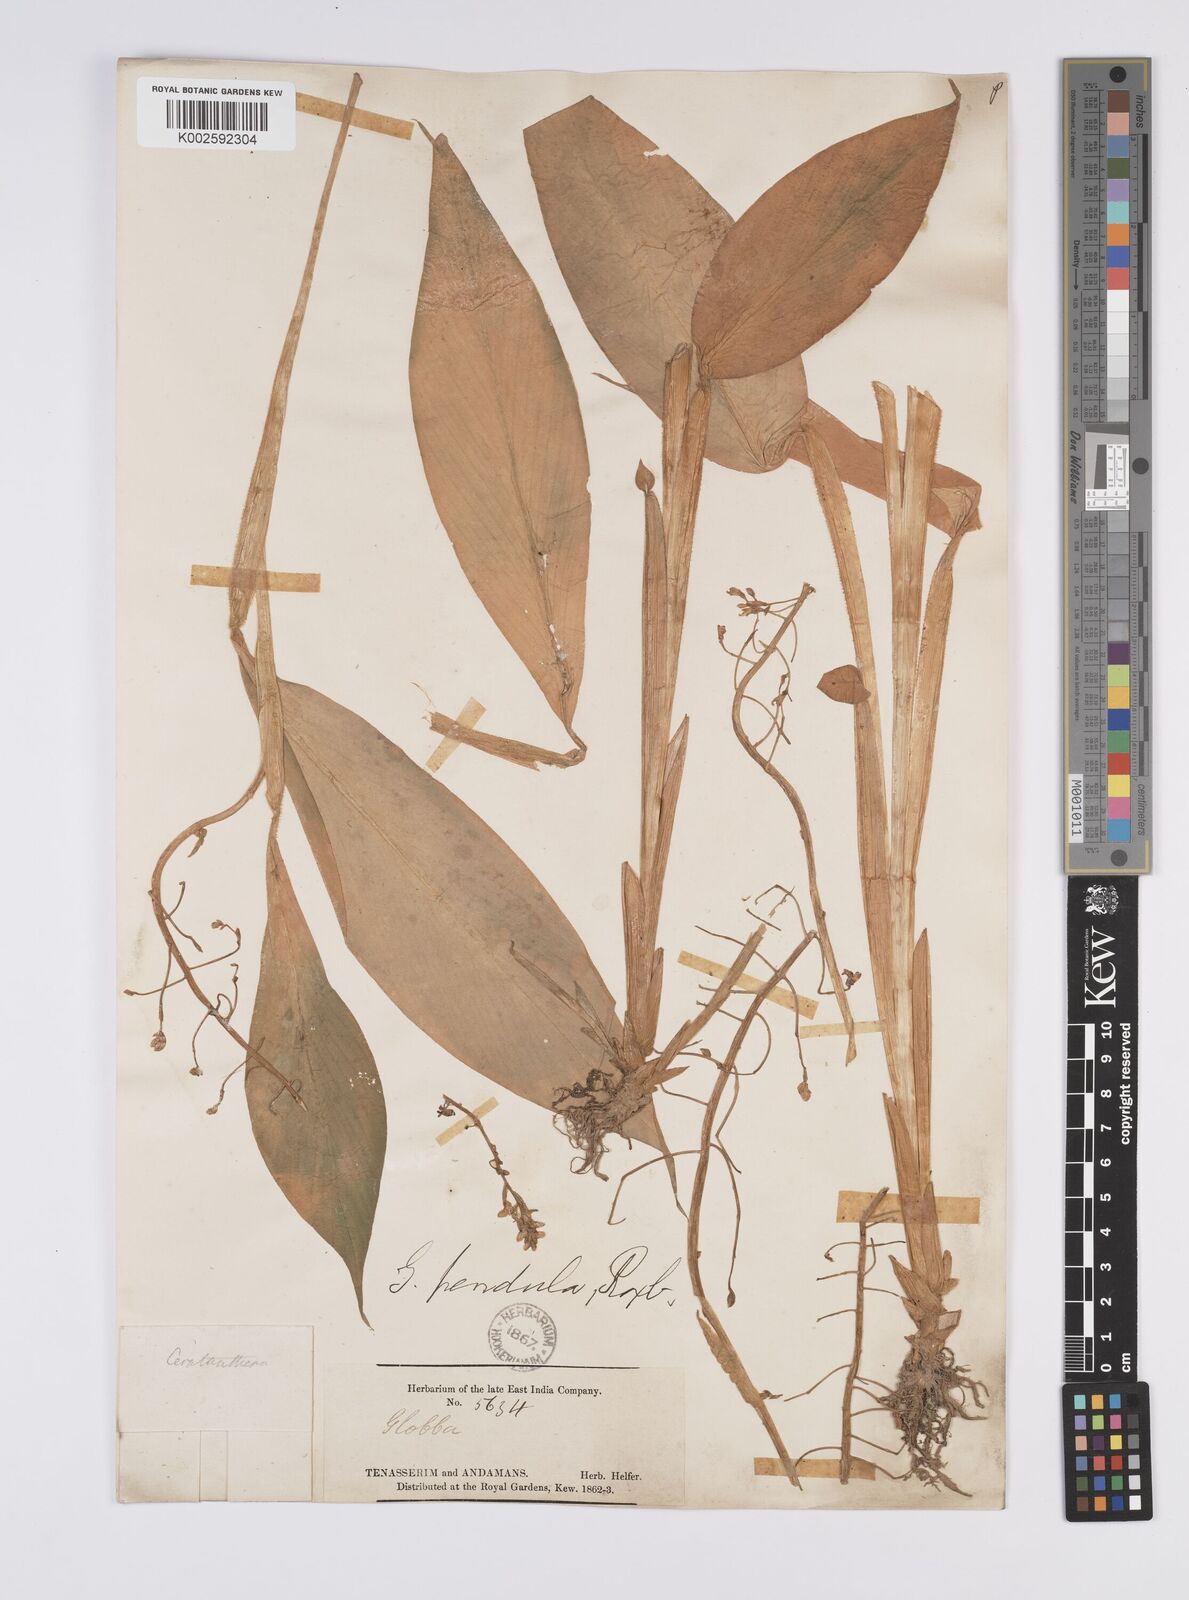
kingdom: Plantae
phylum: Tracheophyta
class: Liliopsida
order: Zingiberales
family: Zingiberaceae
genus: Globba
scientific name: Globba pendula
